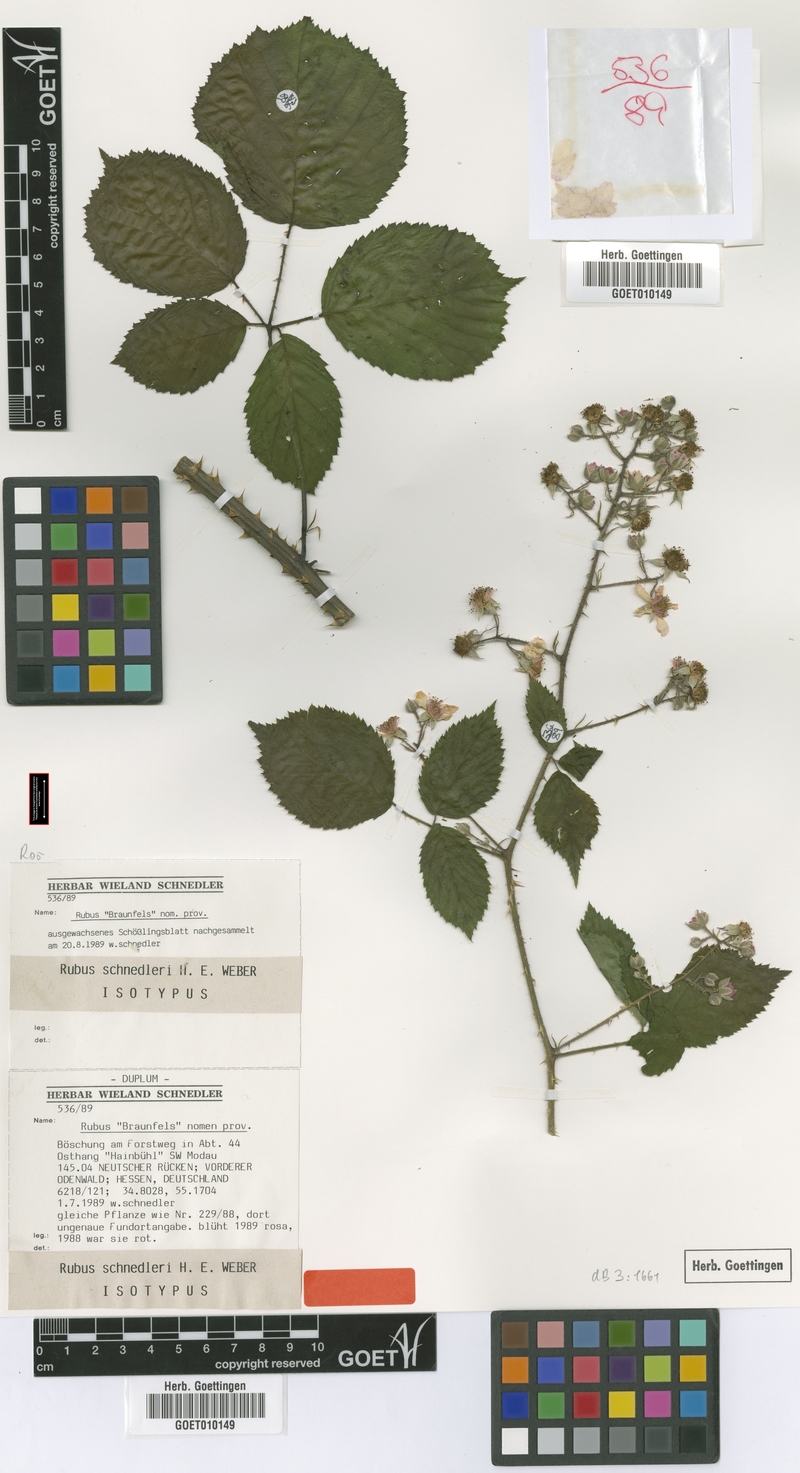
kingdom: Plantae
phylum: Tracheophyta
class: Magnoliopsida
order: Rosales
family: Rosaceae
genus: Rubus
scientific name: Rubus atrovirens
